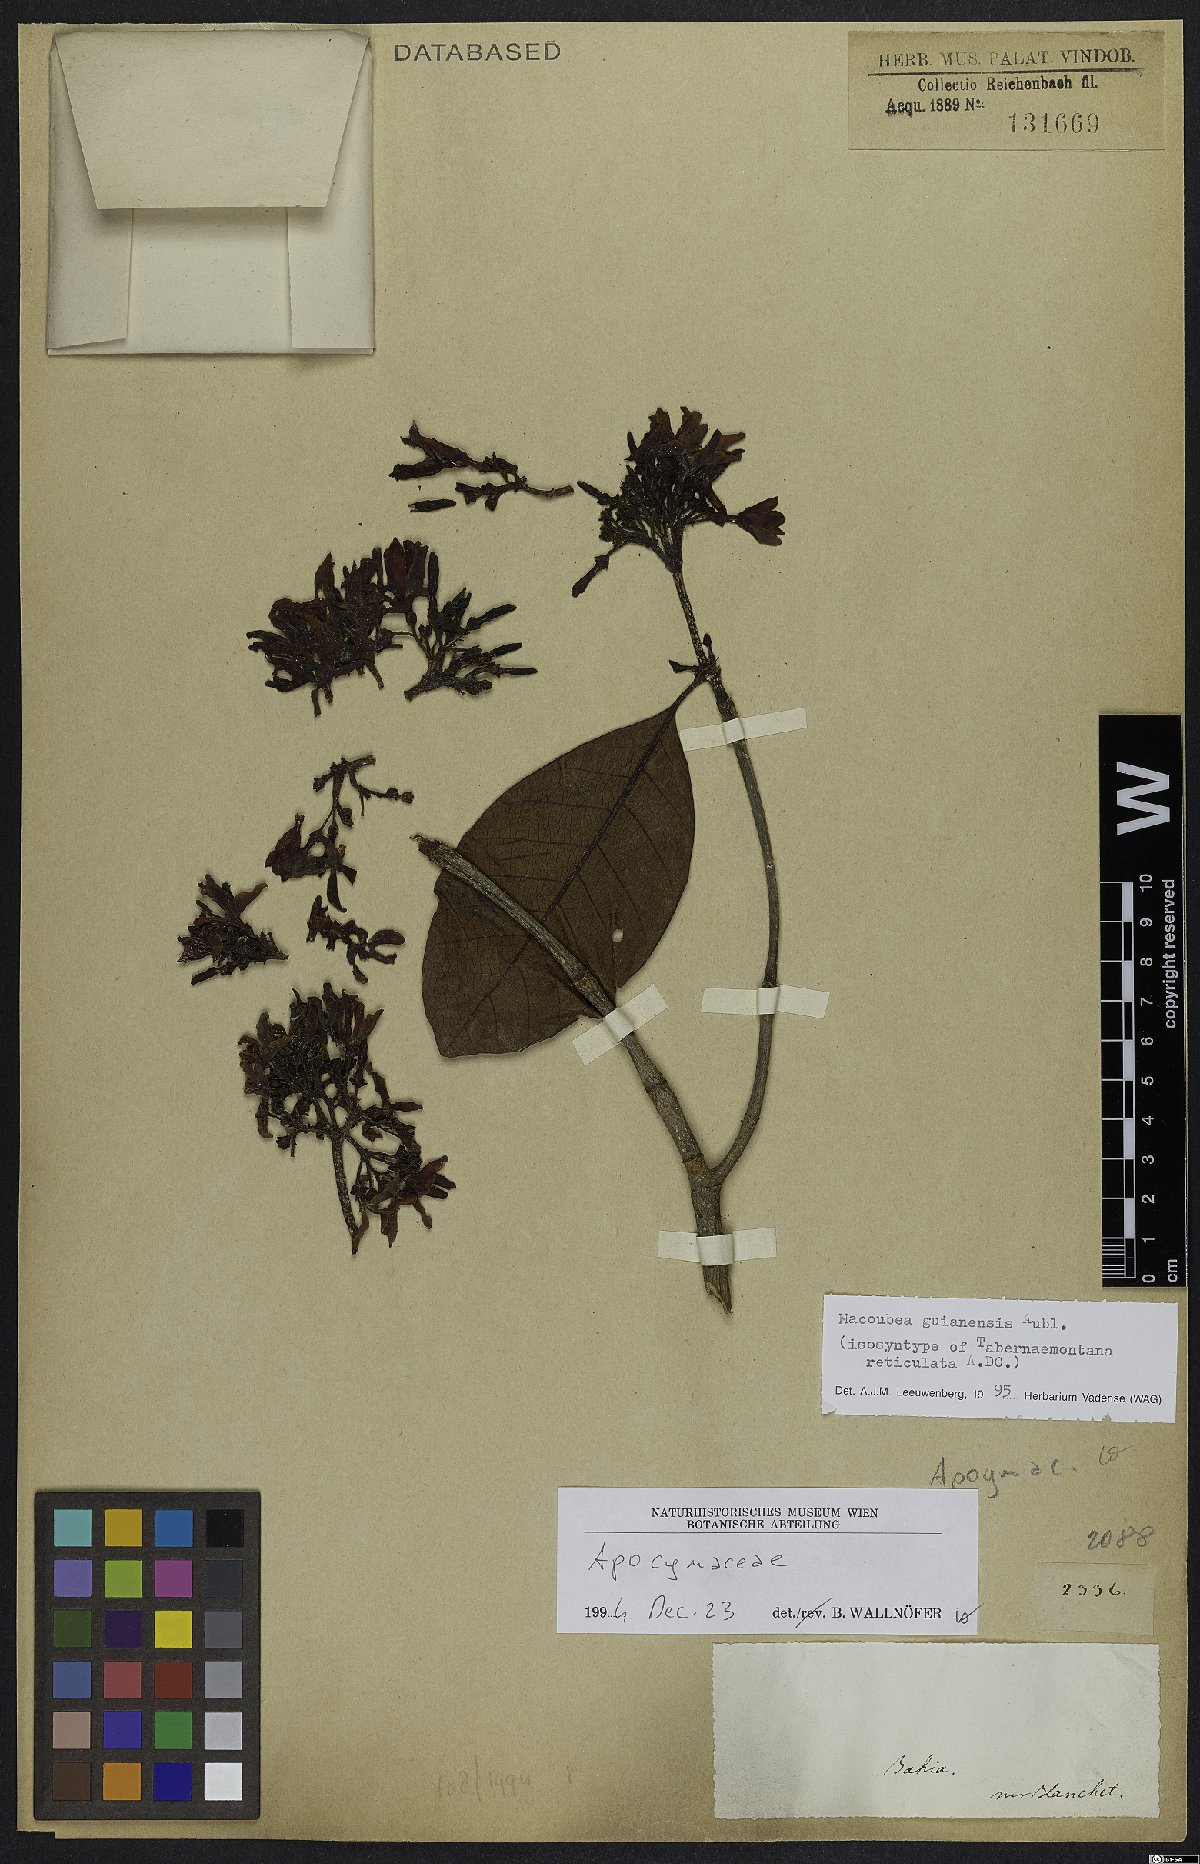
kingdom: Plantae
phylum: Tracheophyta
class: Magnoliopsida
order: Gentianales
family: Apocynaceae
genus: Macoubea
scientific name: Macoubea guianensis
